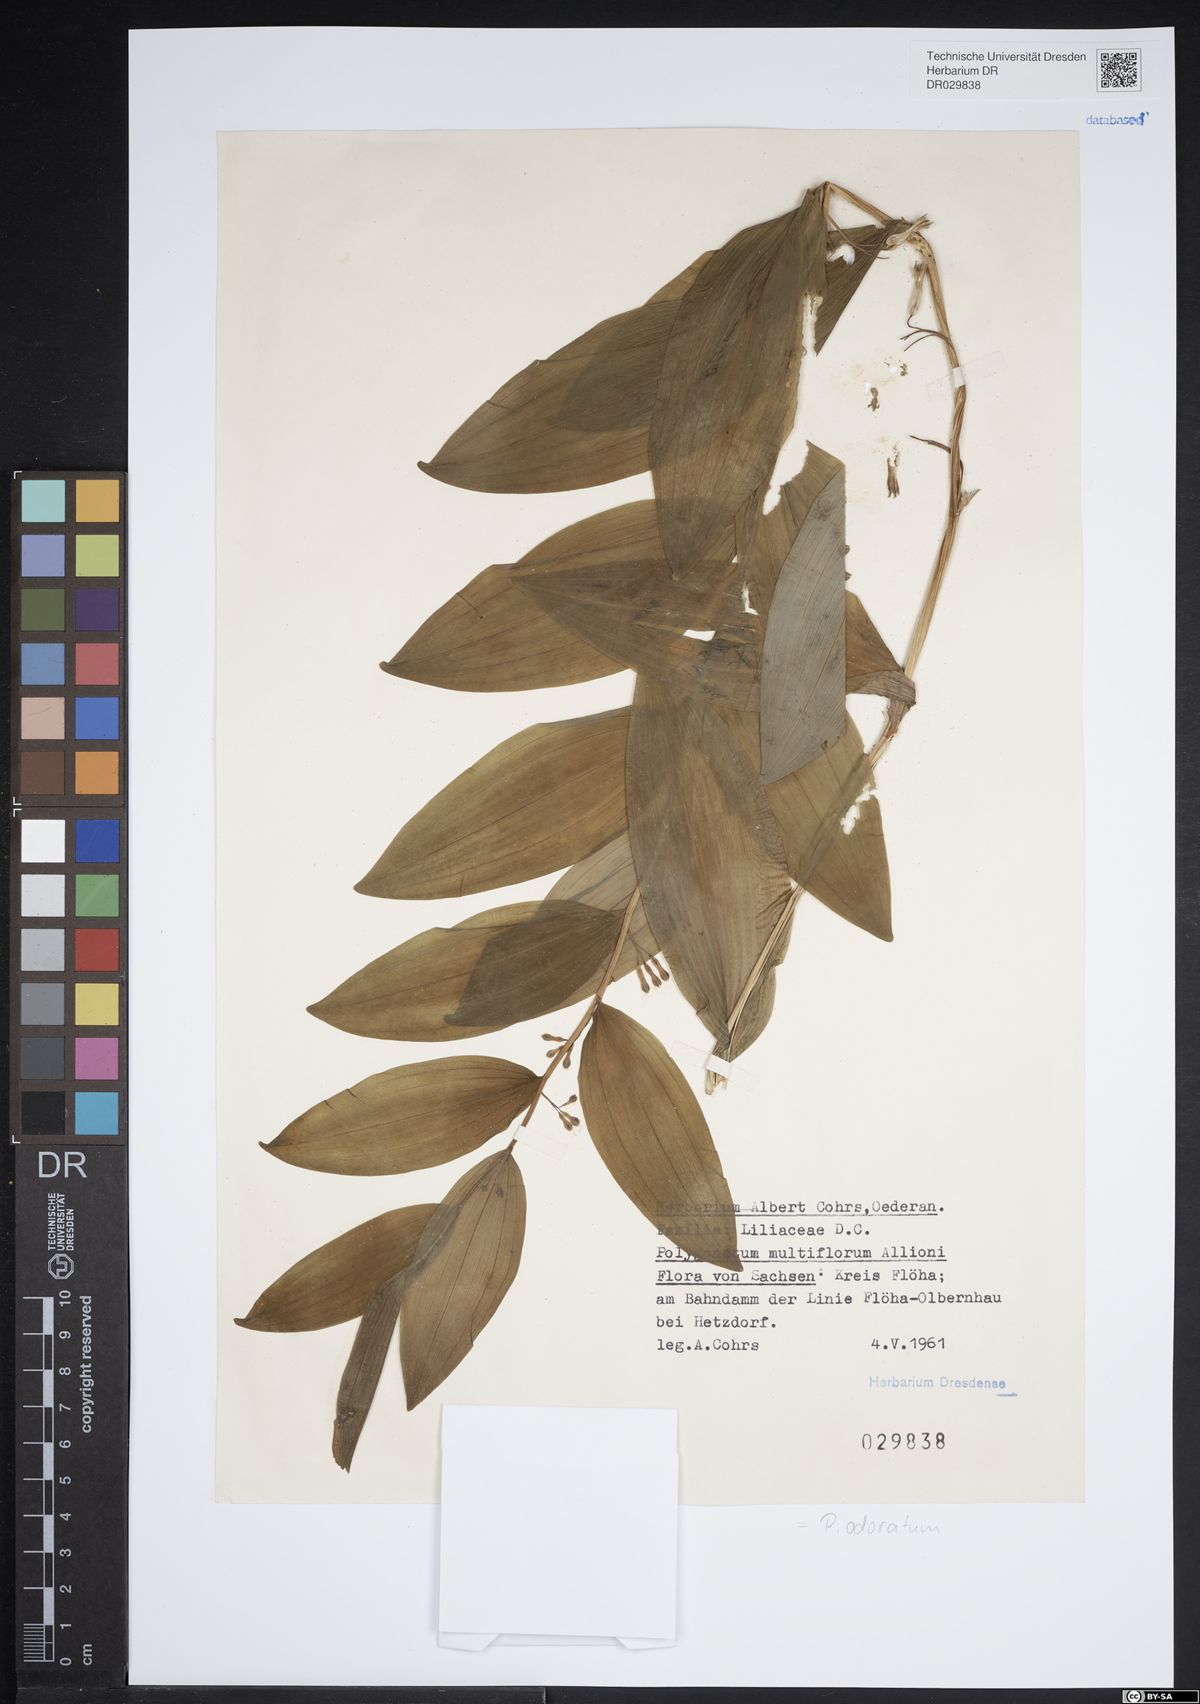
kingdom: Plantae
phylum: Tracheophyta
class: Liliopsida
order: Asparagales
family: Asparagaceae
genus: Polygonatum
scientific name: Polygonatum odoratum
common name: Angular solomon's-seal
